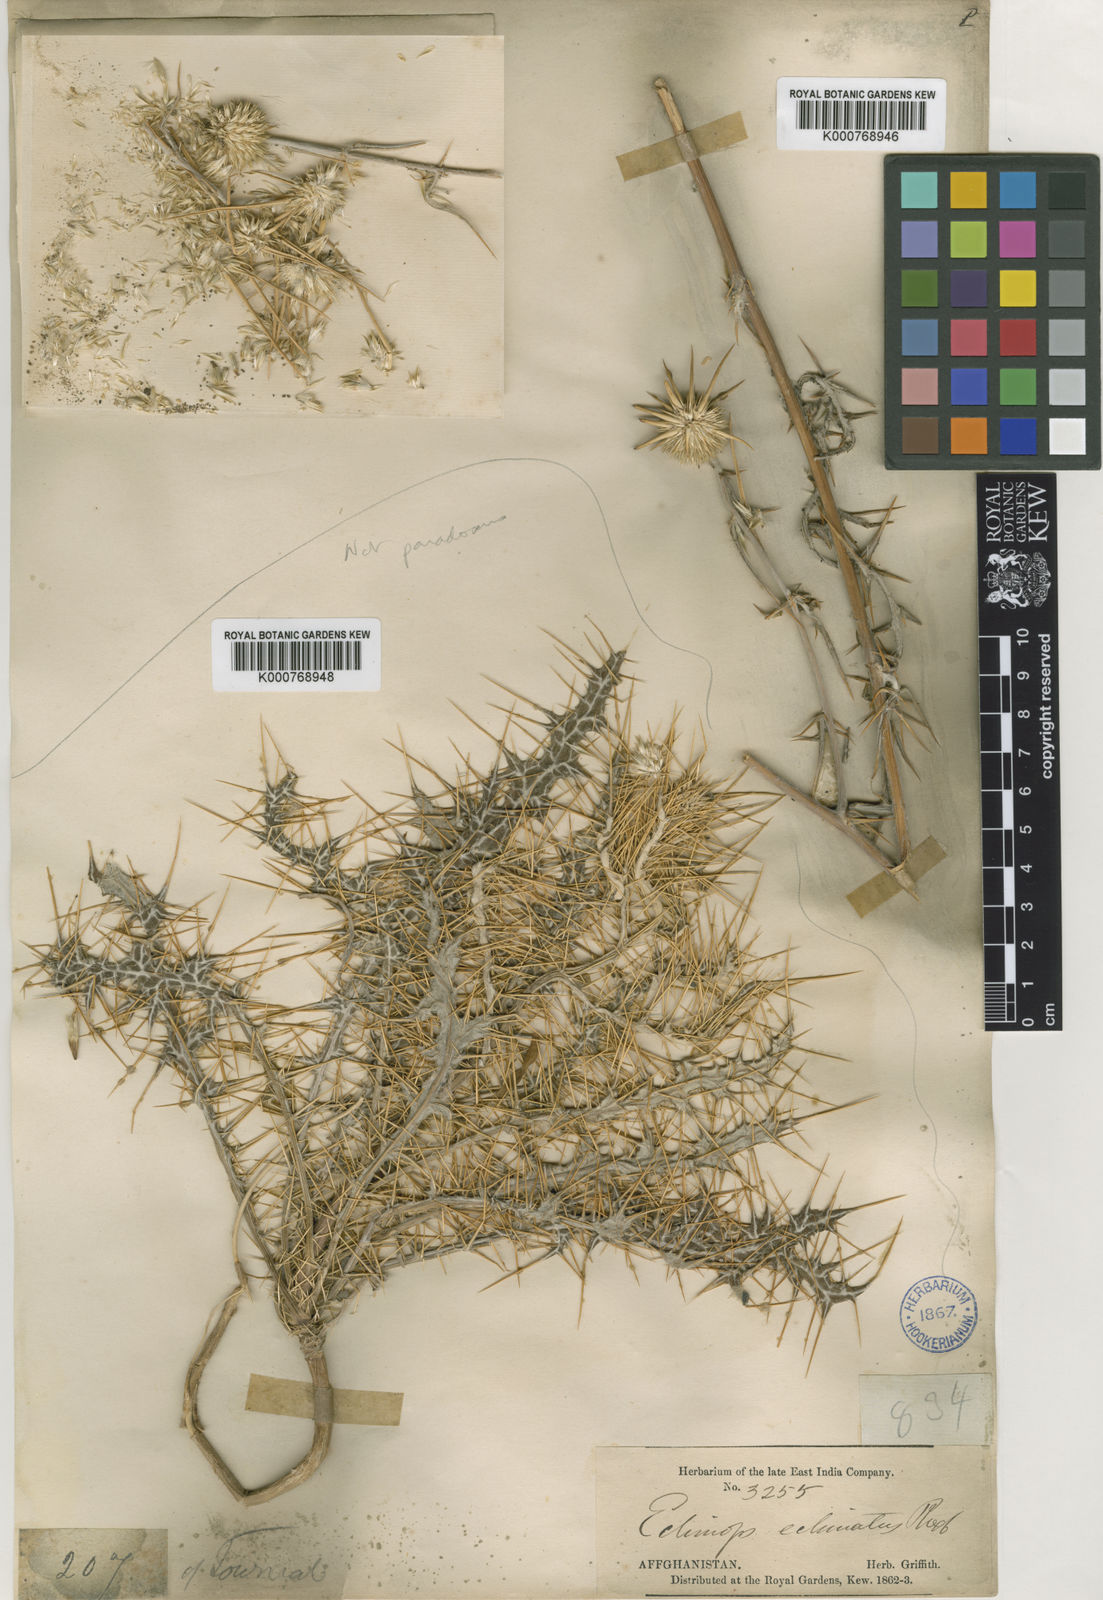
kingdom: Plantae
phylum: Tracheophyta
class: Magnoliopsida
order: Asterales
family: Asteraceae
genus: Echinops
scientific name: Echinops paradoxus
